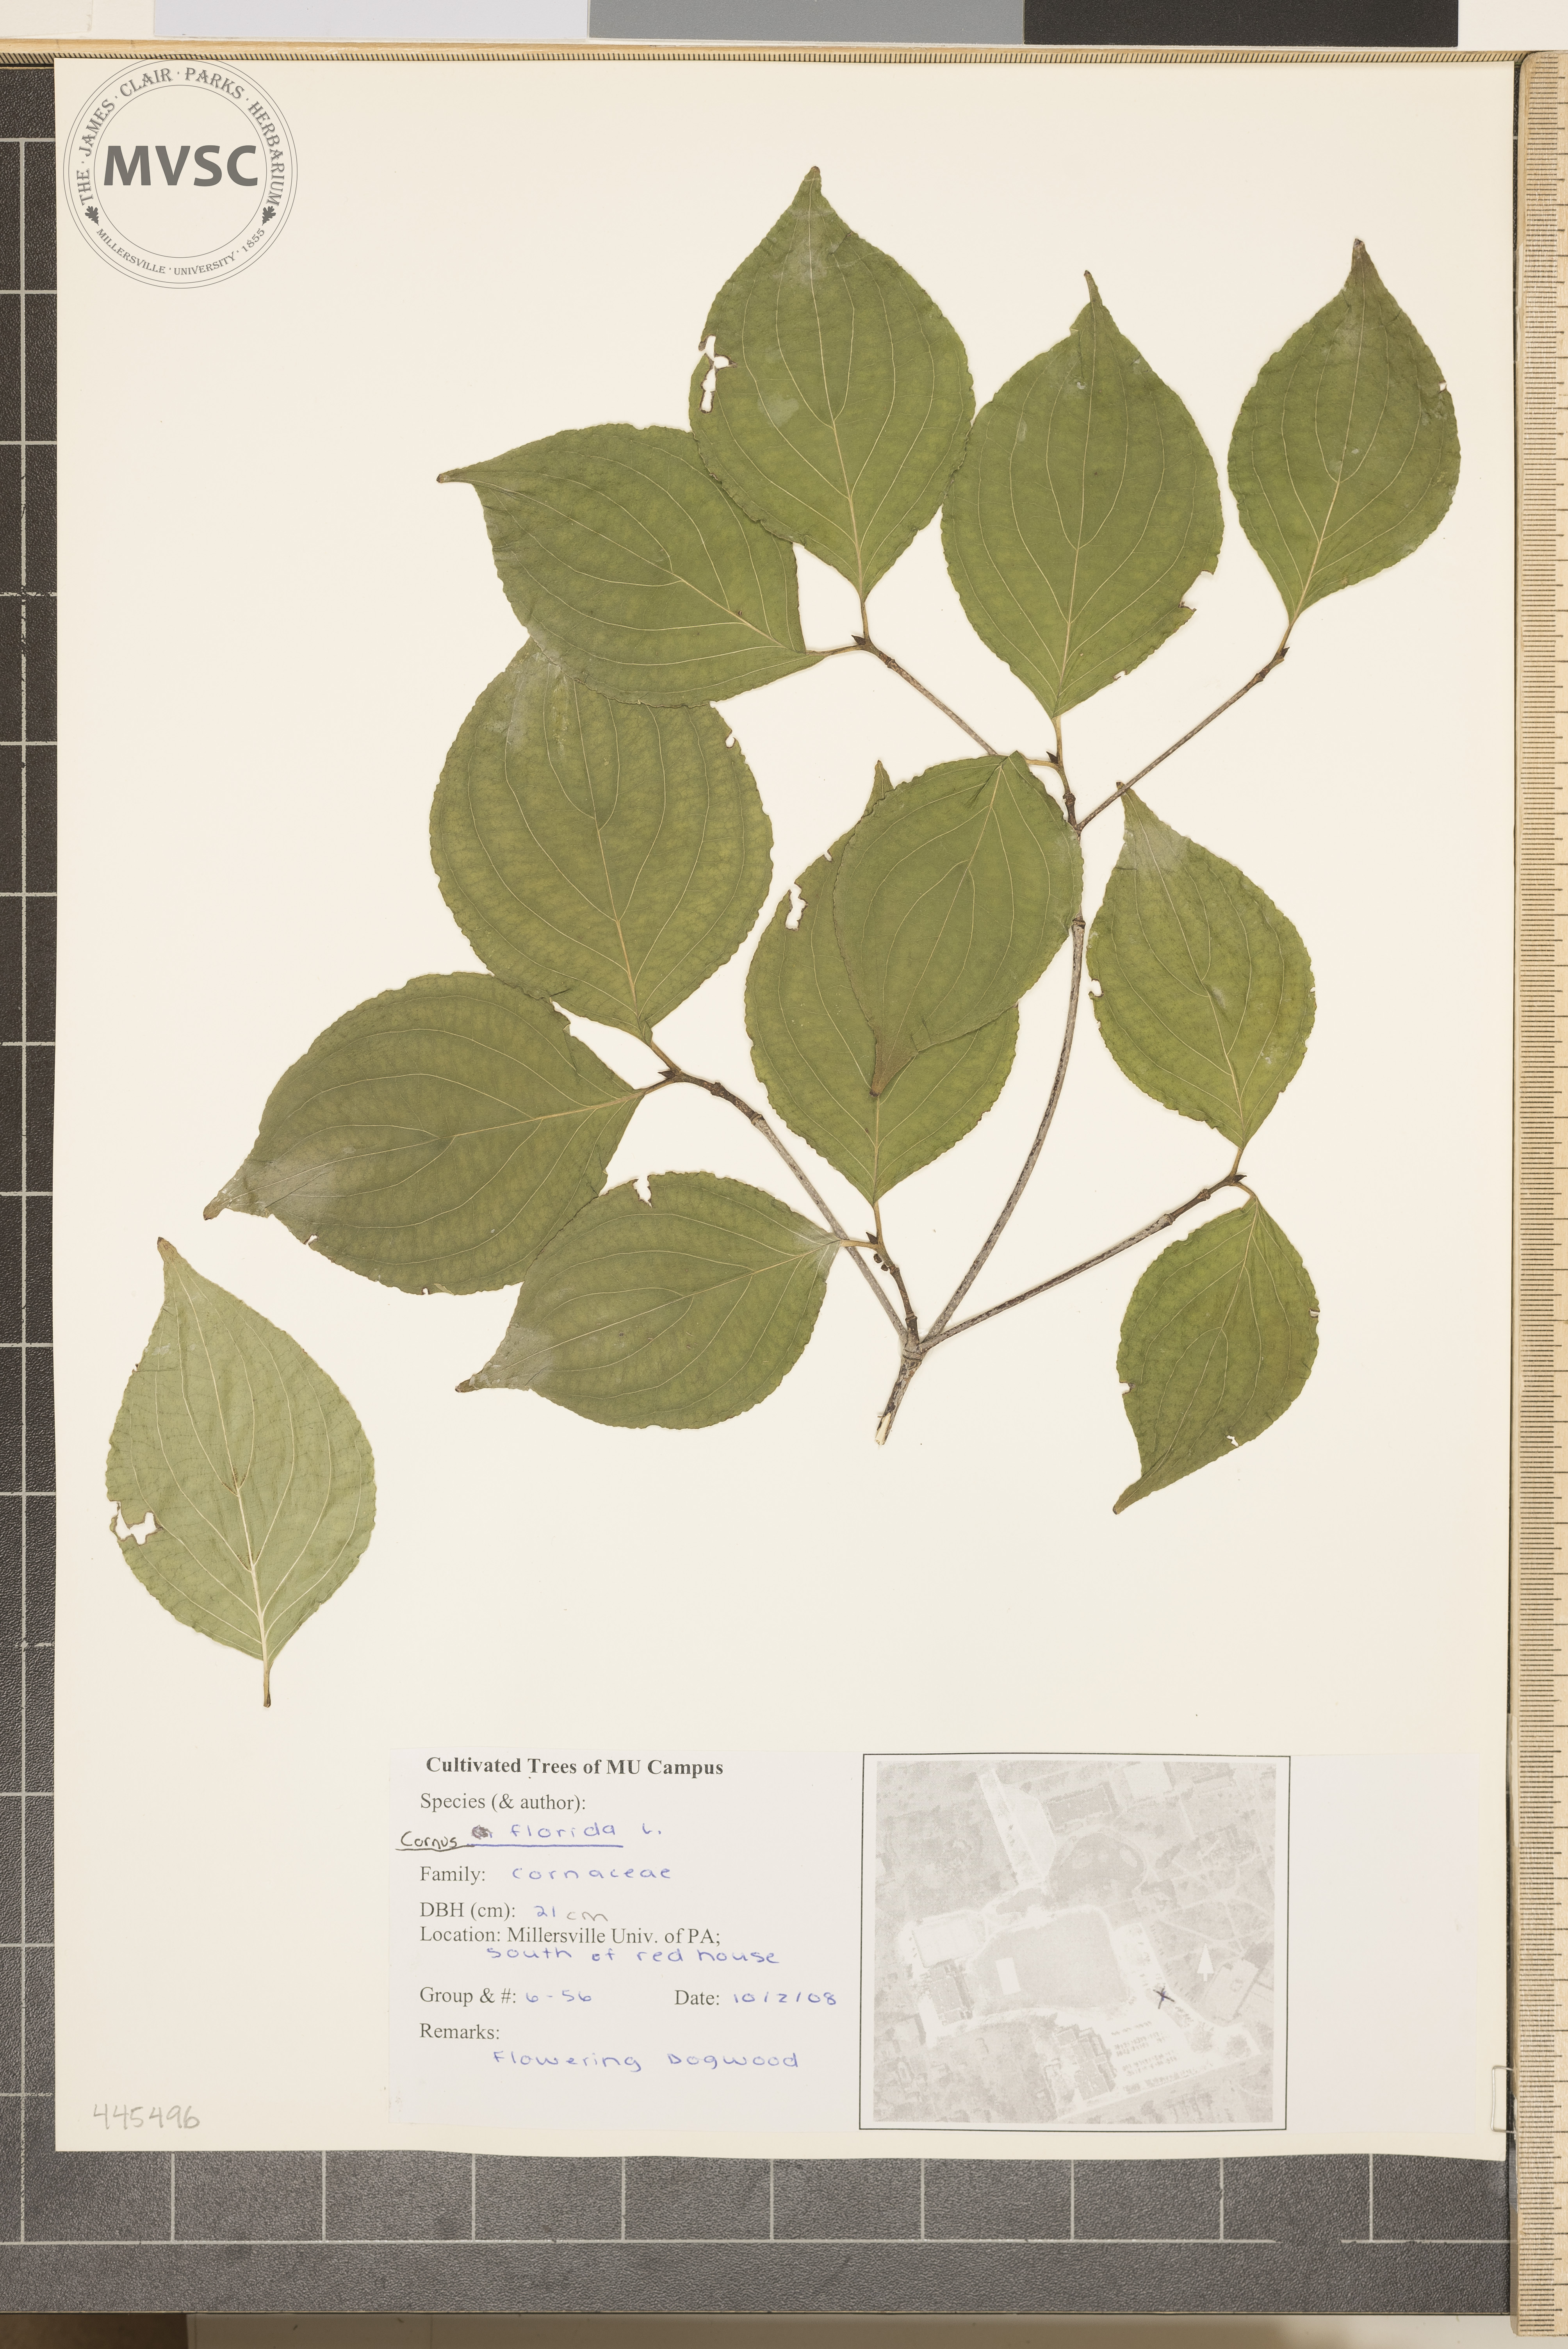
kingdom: Plantae
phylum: Tracheophyta
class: Magnoliopsida
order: Cornales
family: Cornaceae
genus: Cornus
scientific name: Cornus florida
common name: Flowering Dogwood
